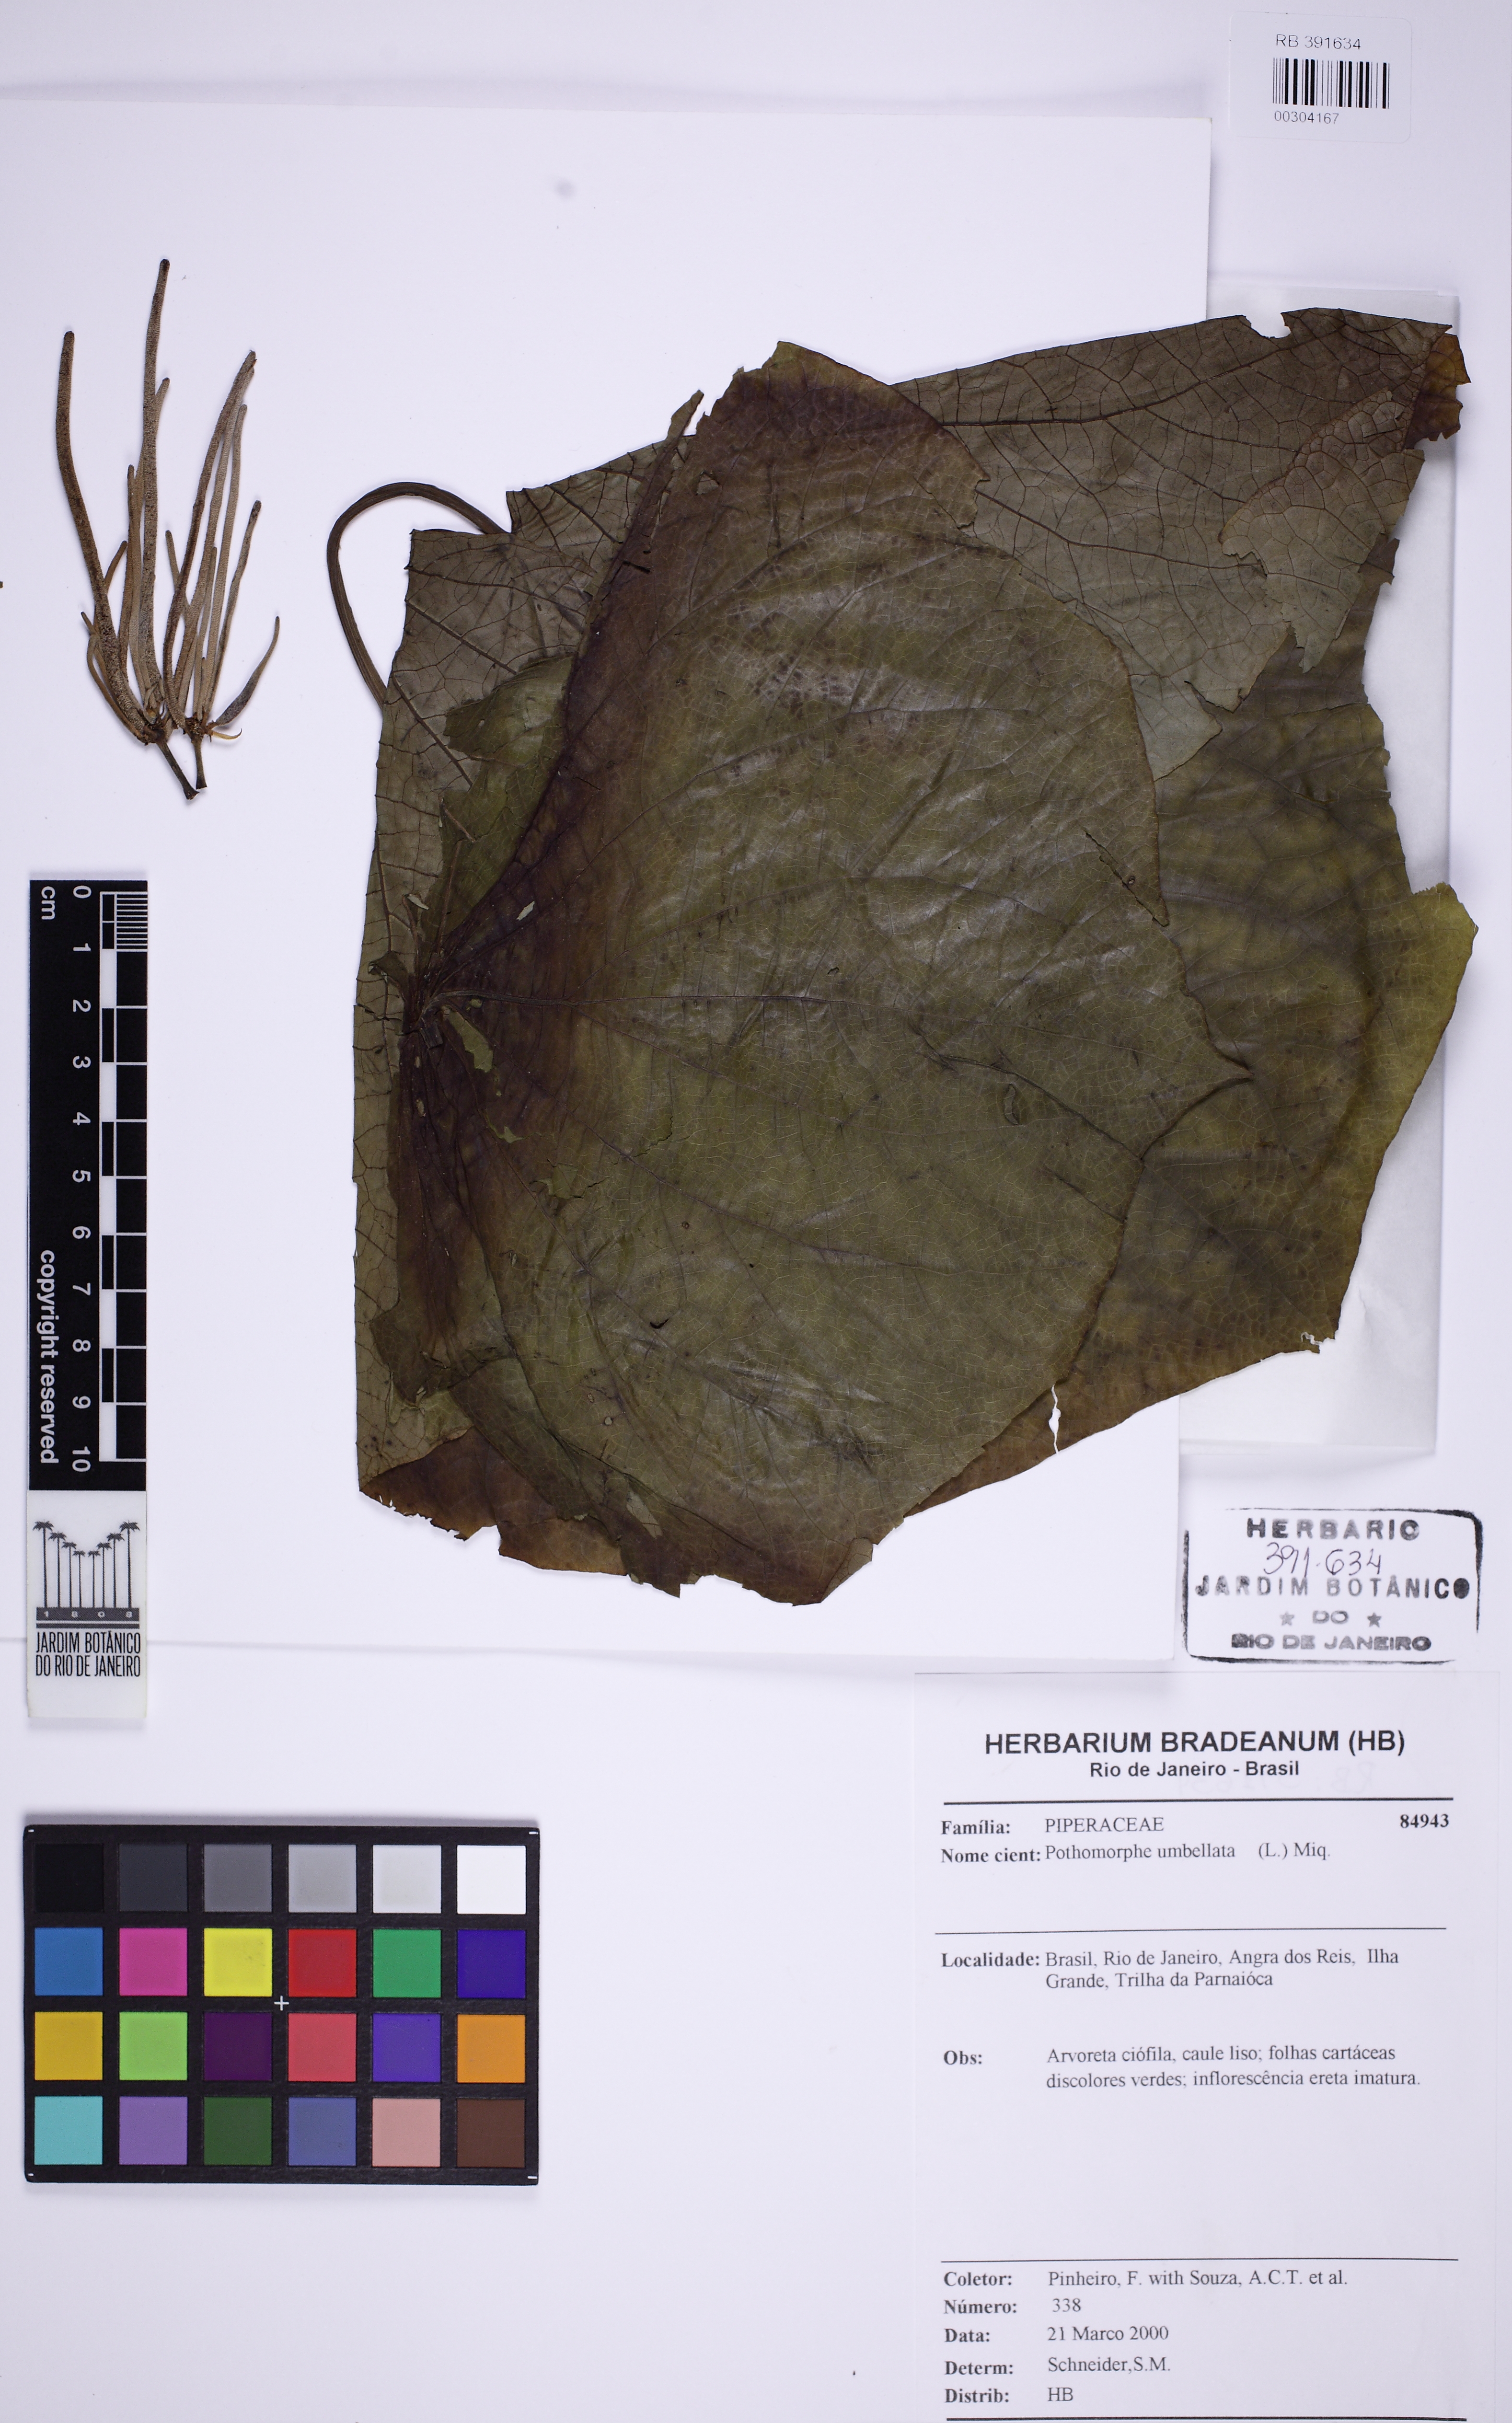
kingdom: Plantae
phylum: Tracheophyta
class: Magnoliopsida
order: Piperales
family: Piperaceae
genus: Piper
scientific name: Piper umbellatum
